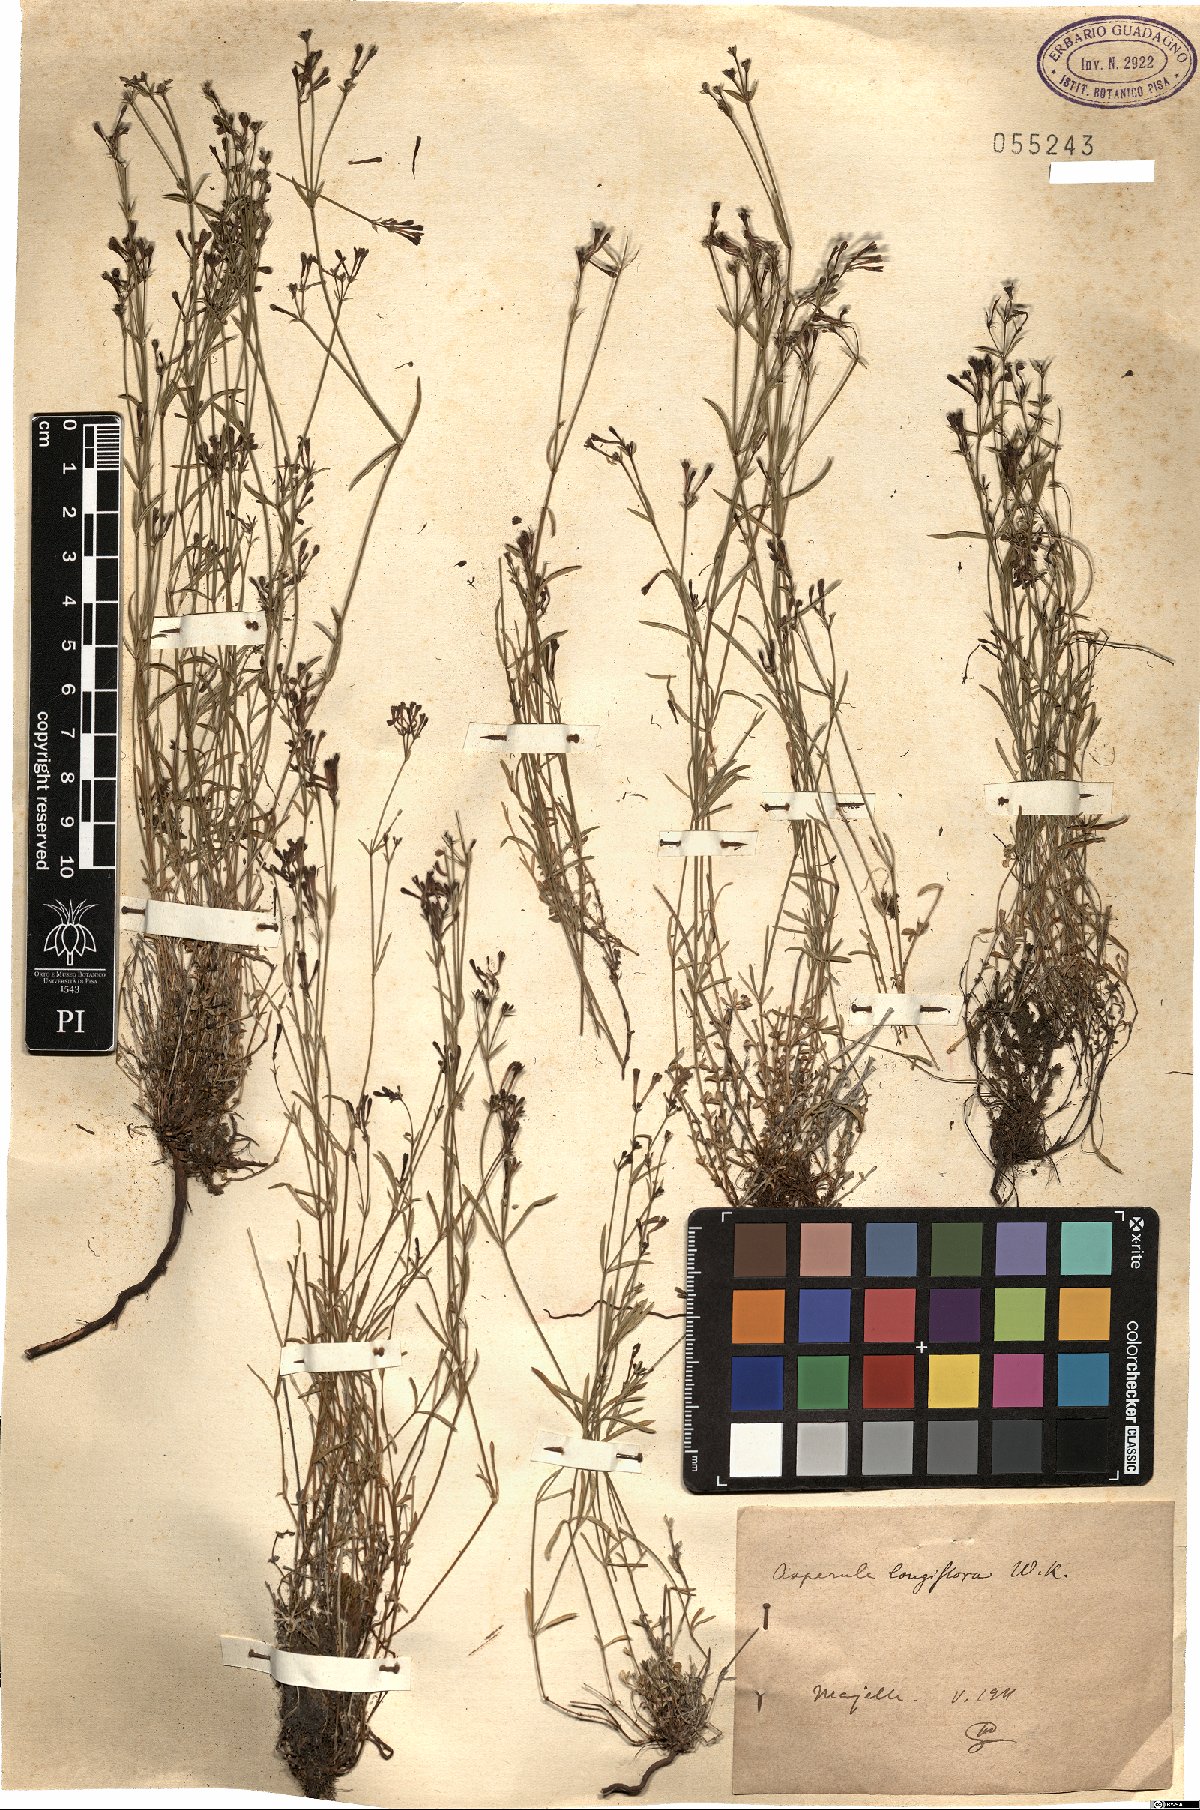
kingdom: Plantae
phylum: Tracheophyta
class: Magnoliopsida
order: Gentianales
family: Rubiaceae
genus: Cynanchica
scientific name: Cynanchica aristata
